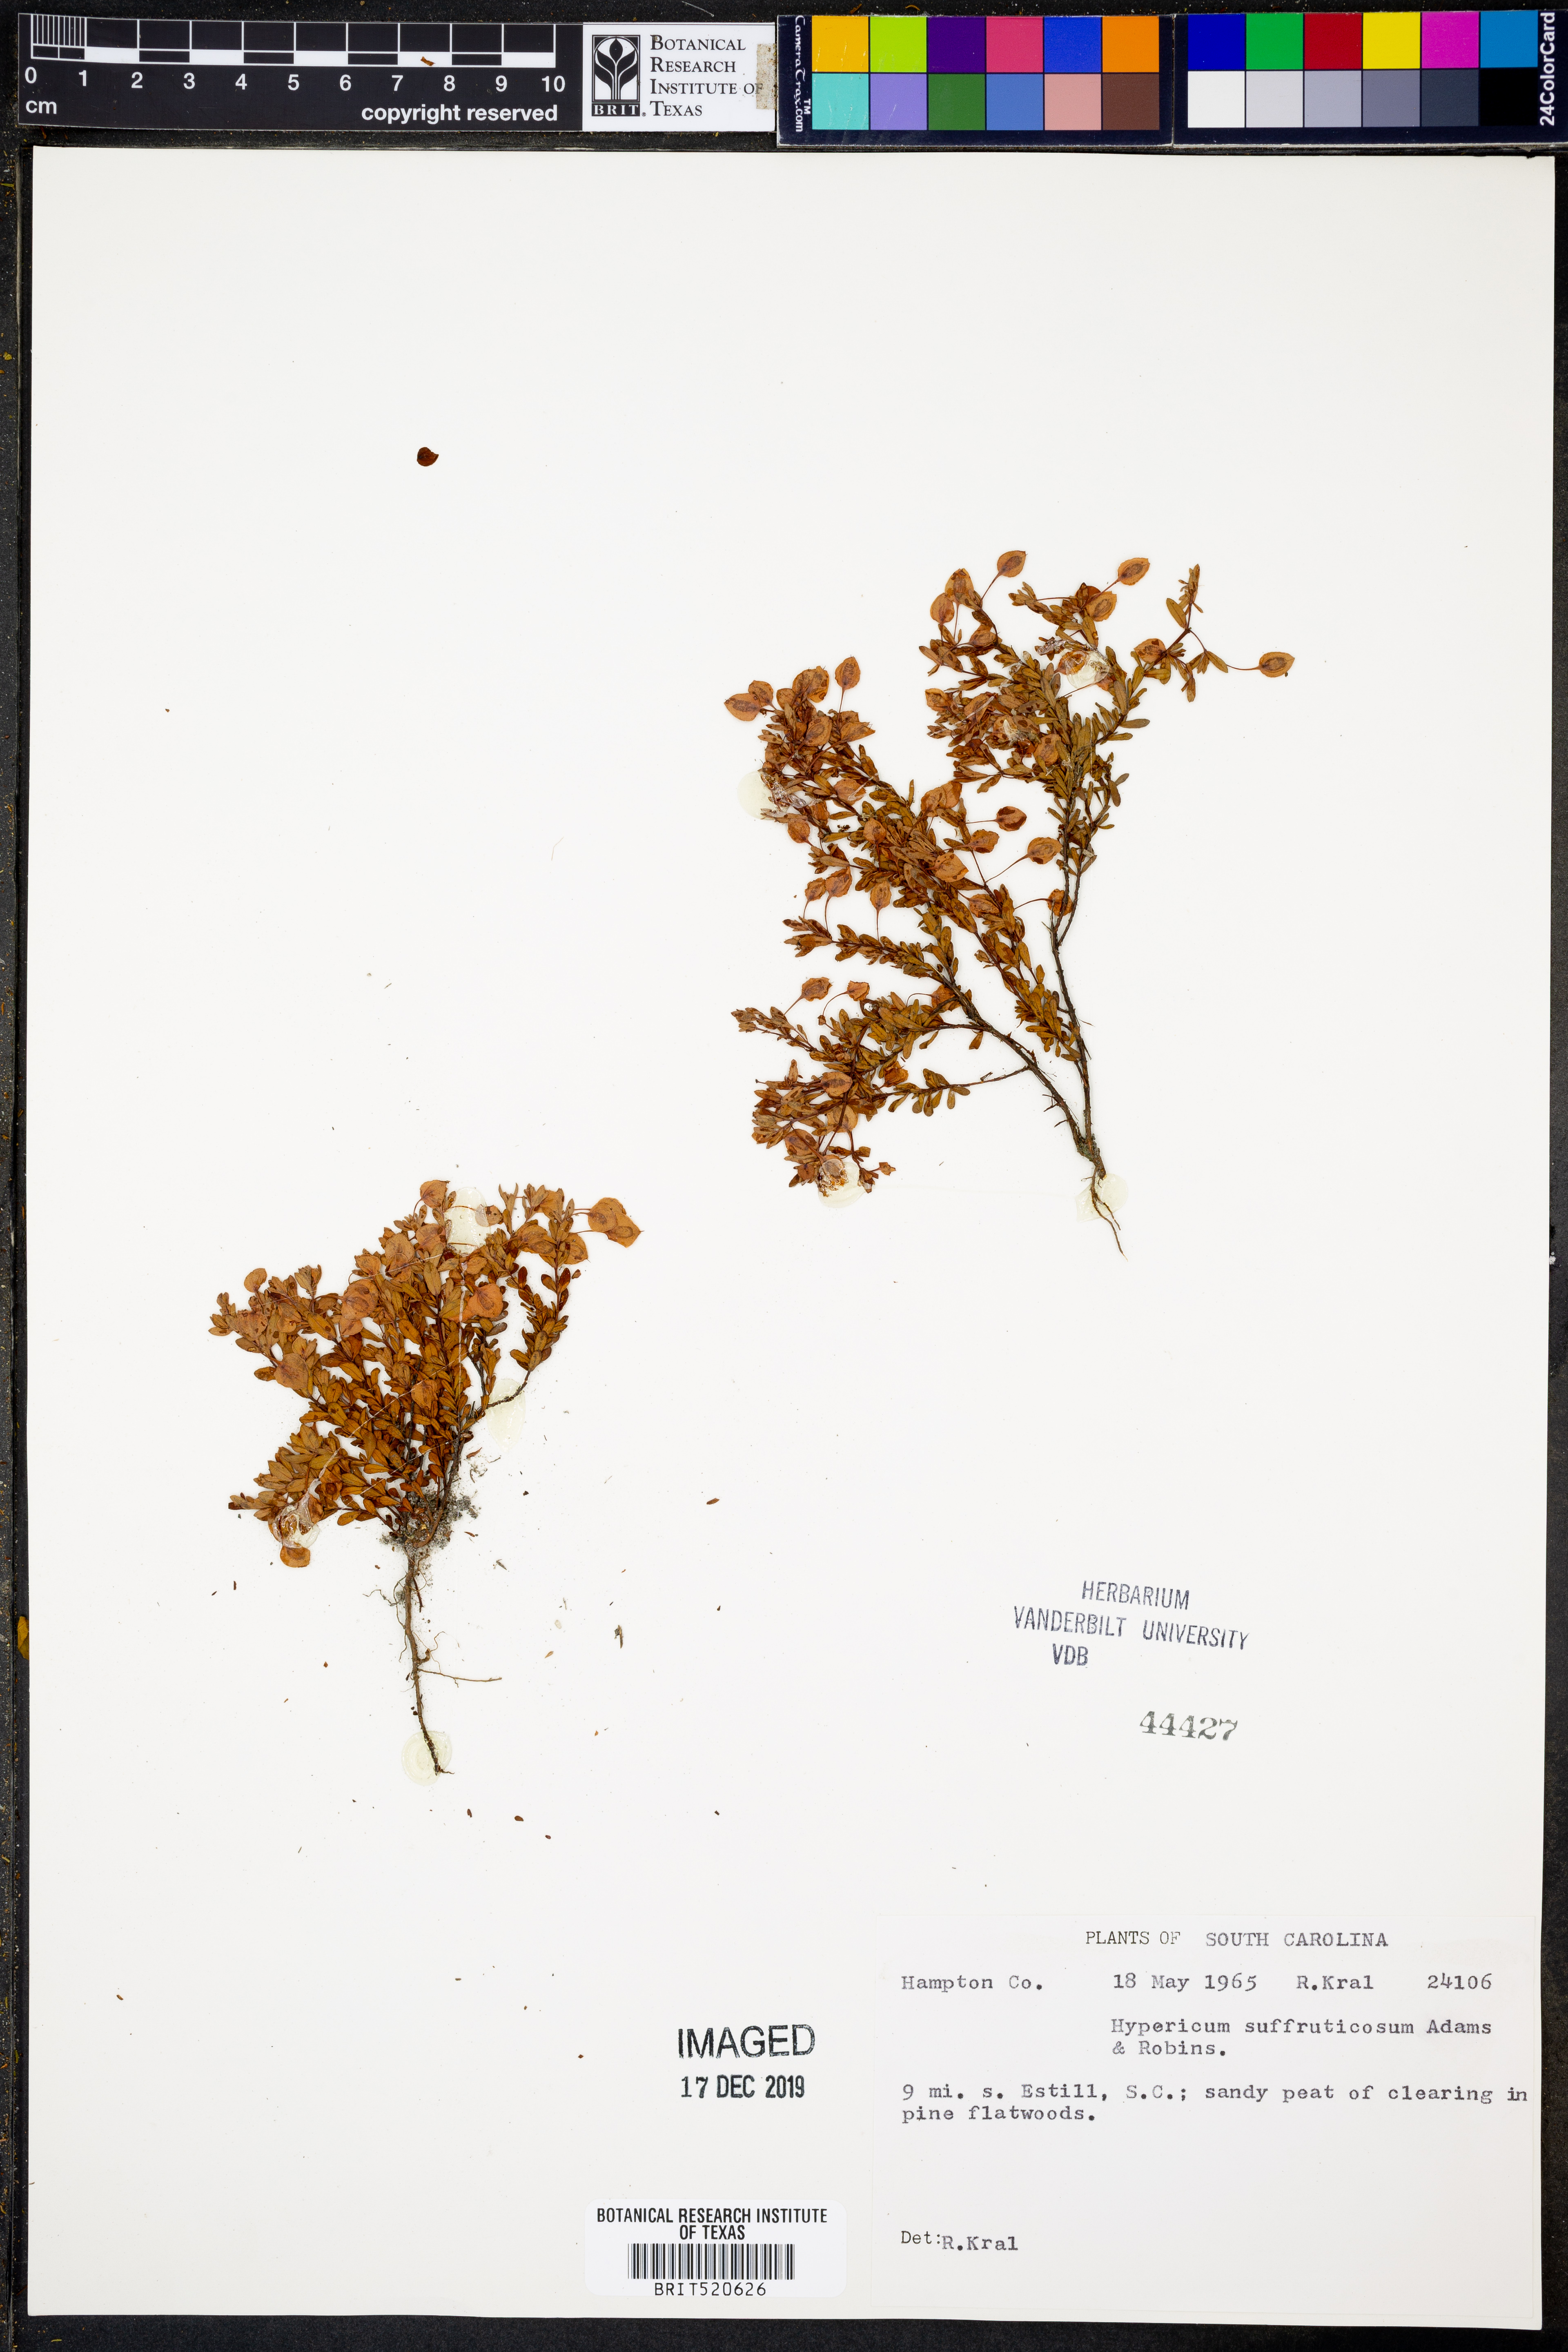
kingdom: Plantae
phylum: Tracheophyta
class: Magnoliopsida
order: Malpighiales
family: Hypericaceae
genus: Hypericum
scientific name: Hypericum suffruticosum
